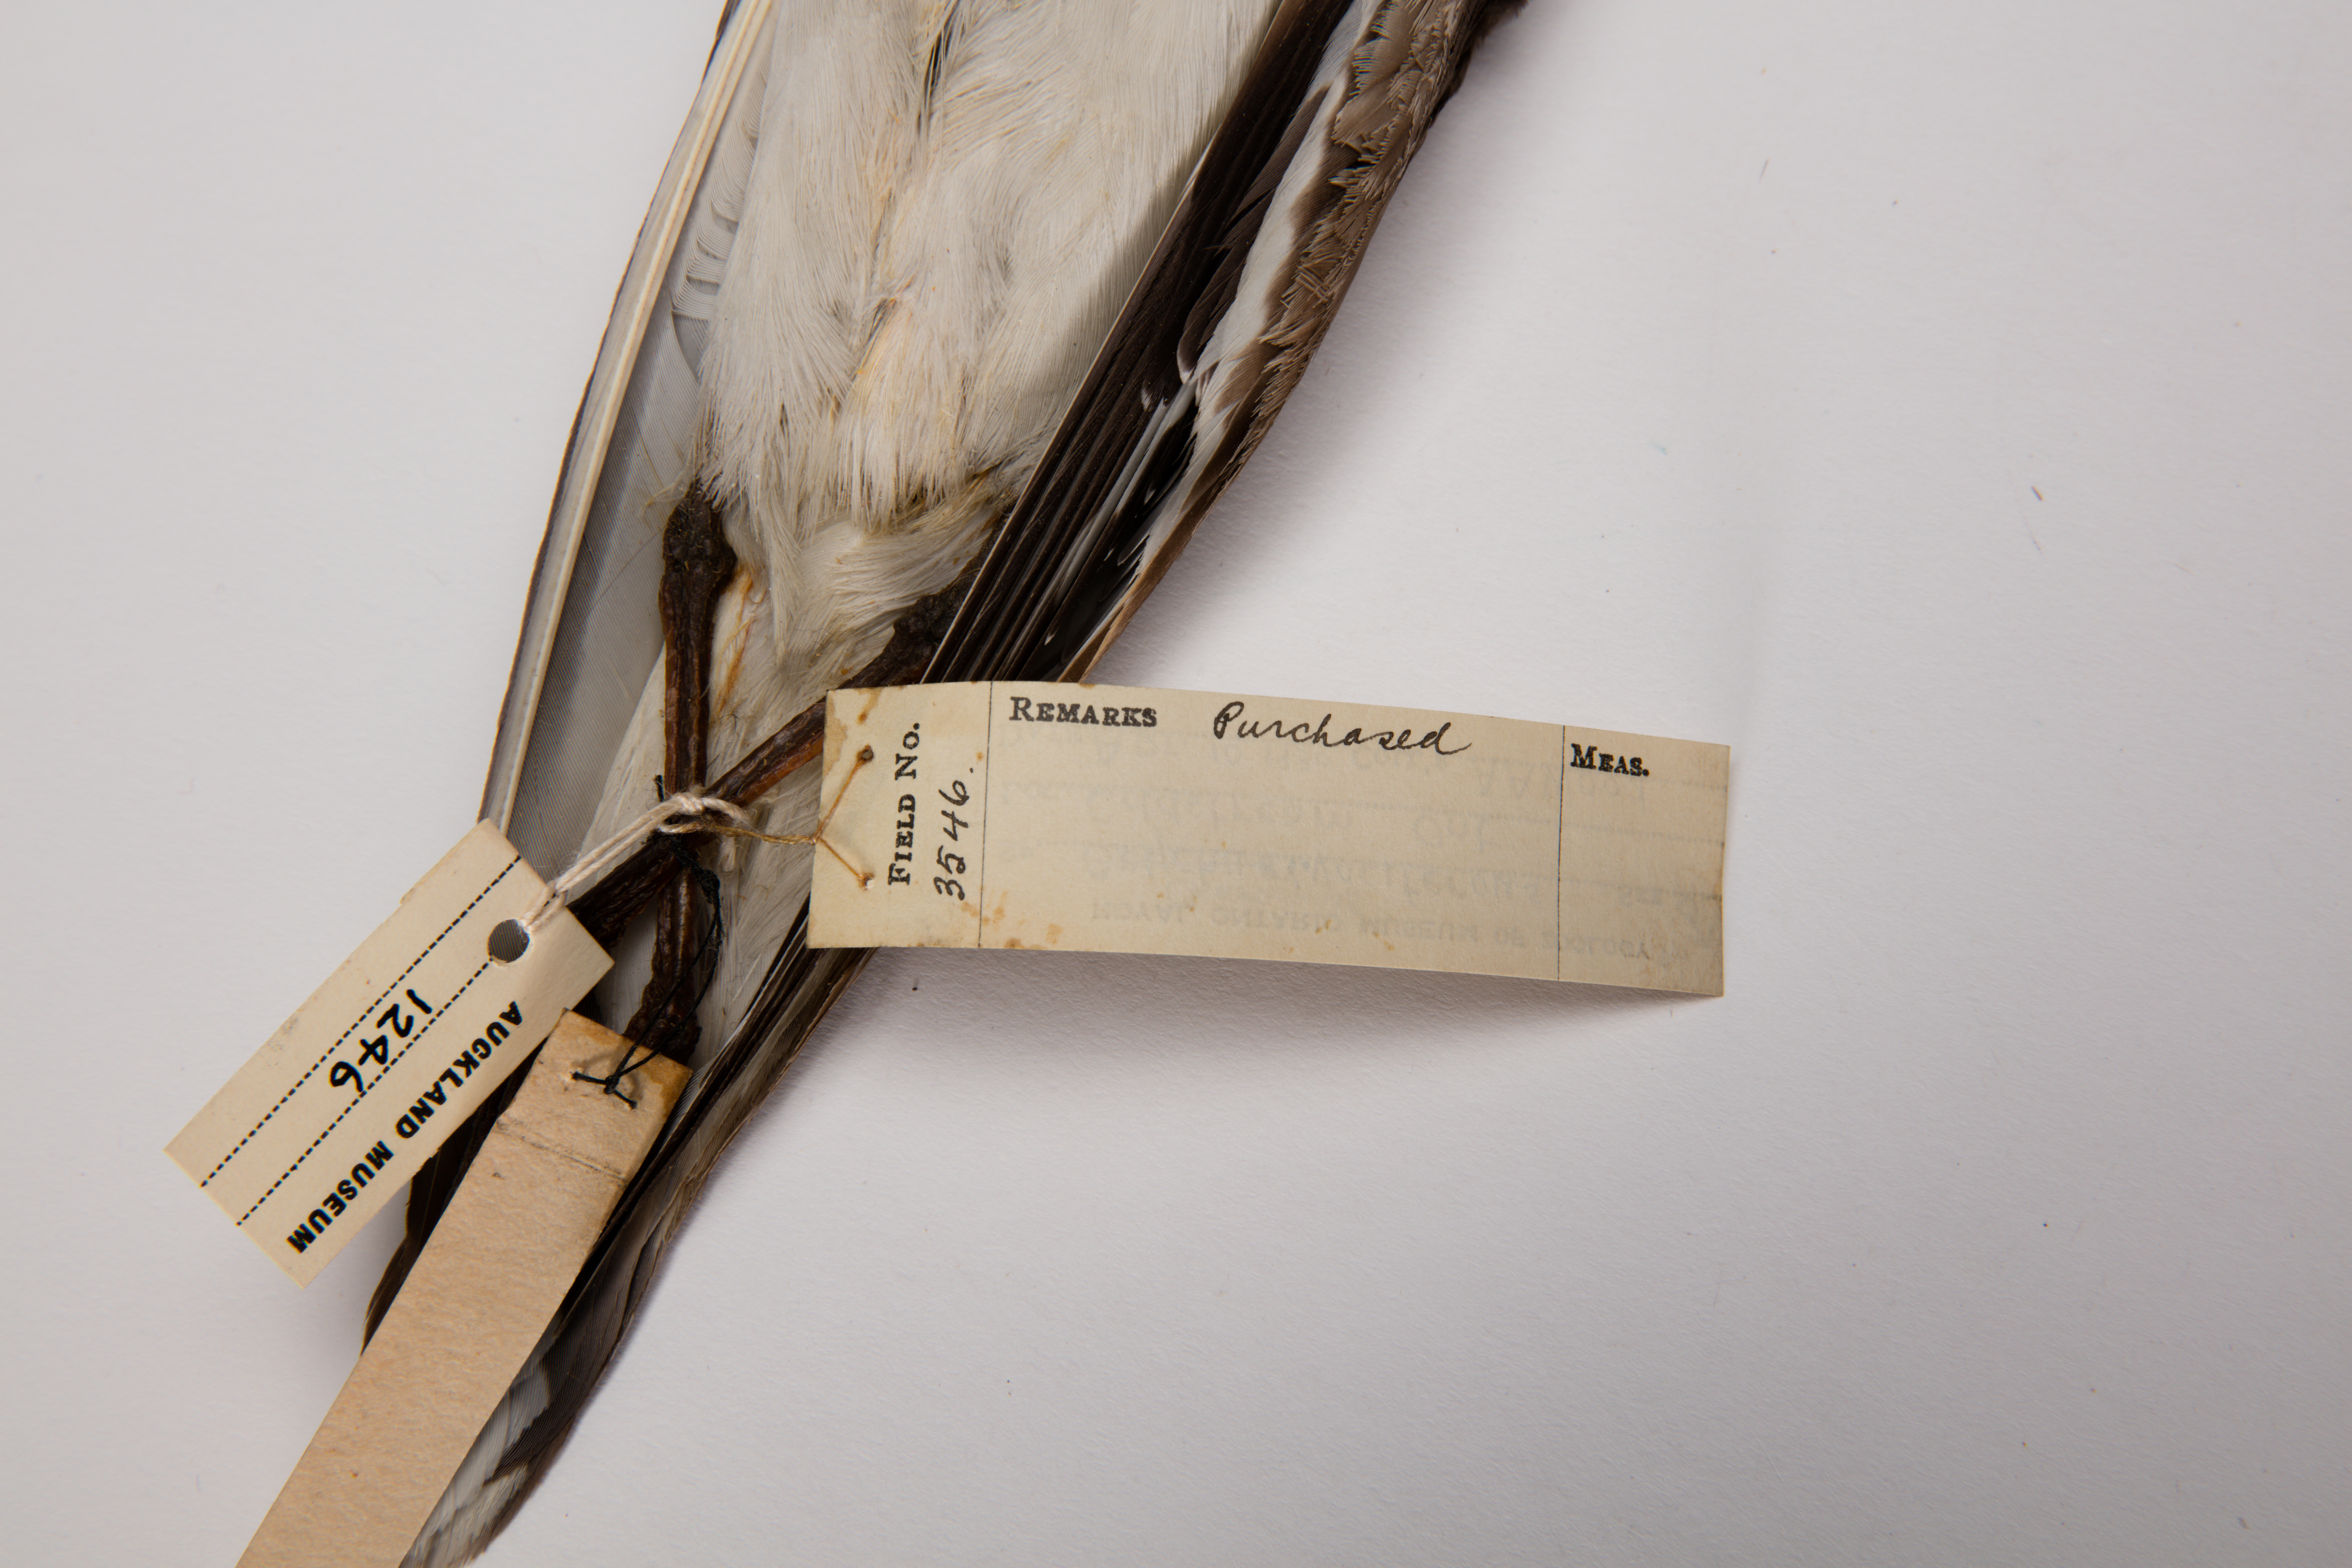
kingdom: Animalia
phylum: Chordata
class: Aves
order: Charadriiformes
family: Charadriidae
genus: Charadrius
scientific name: Charadrius vociferus
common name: Killdeer
